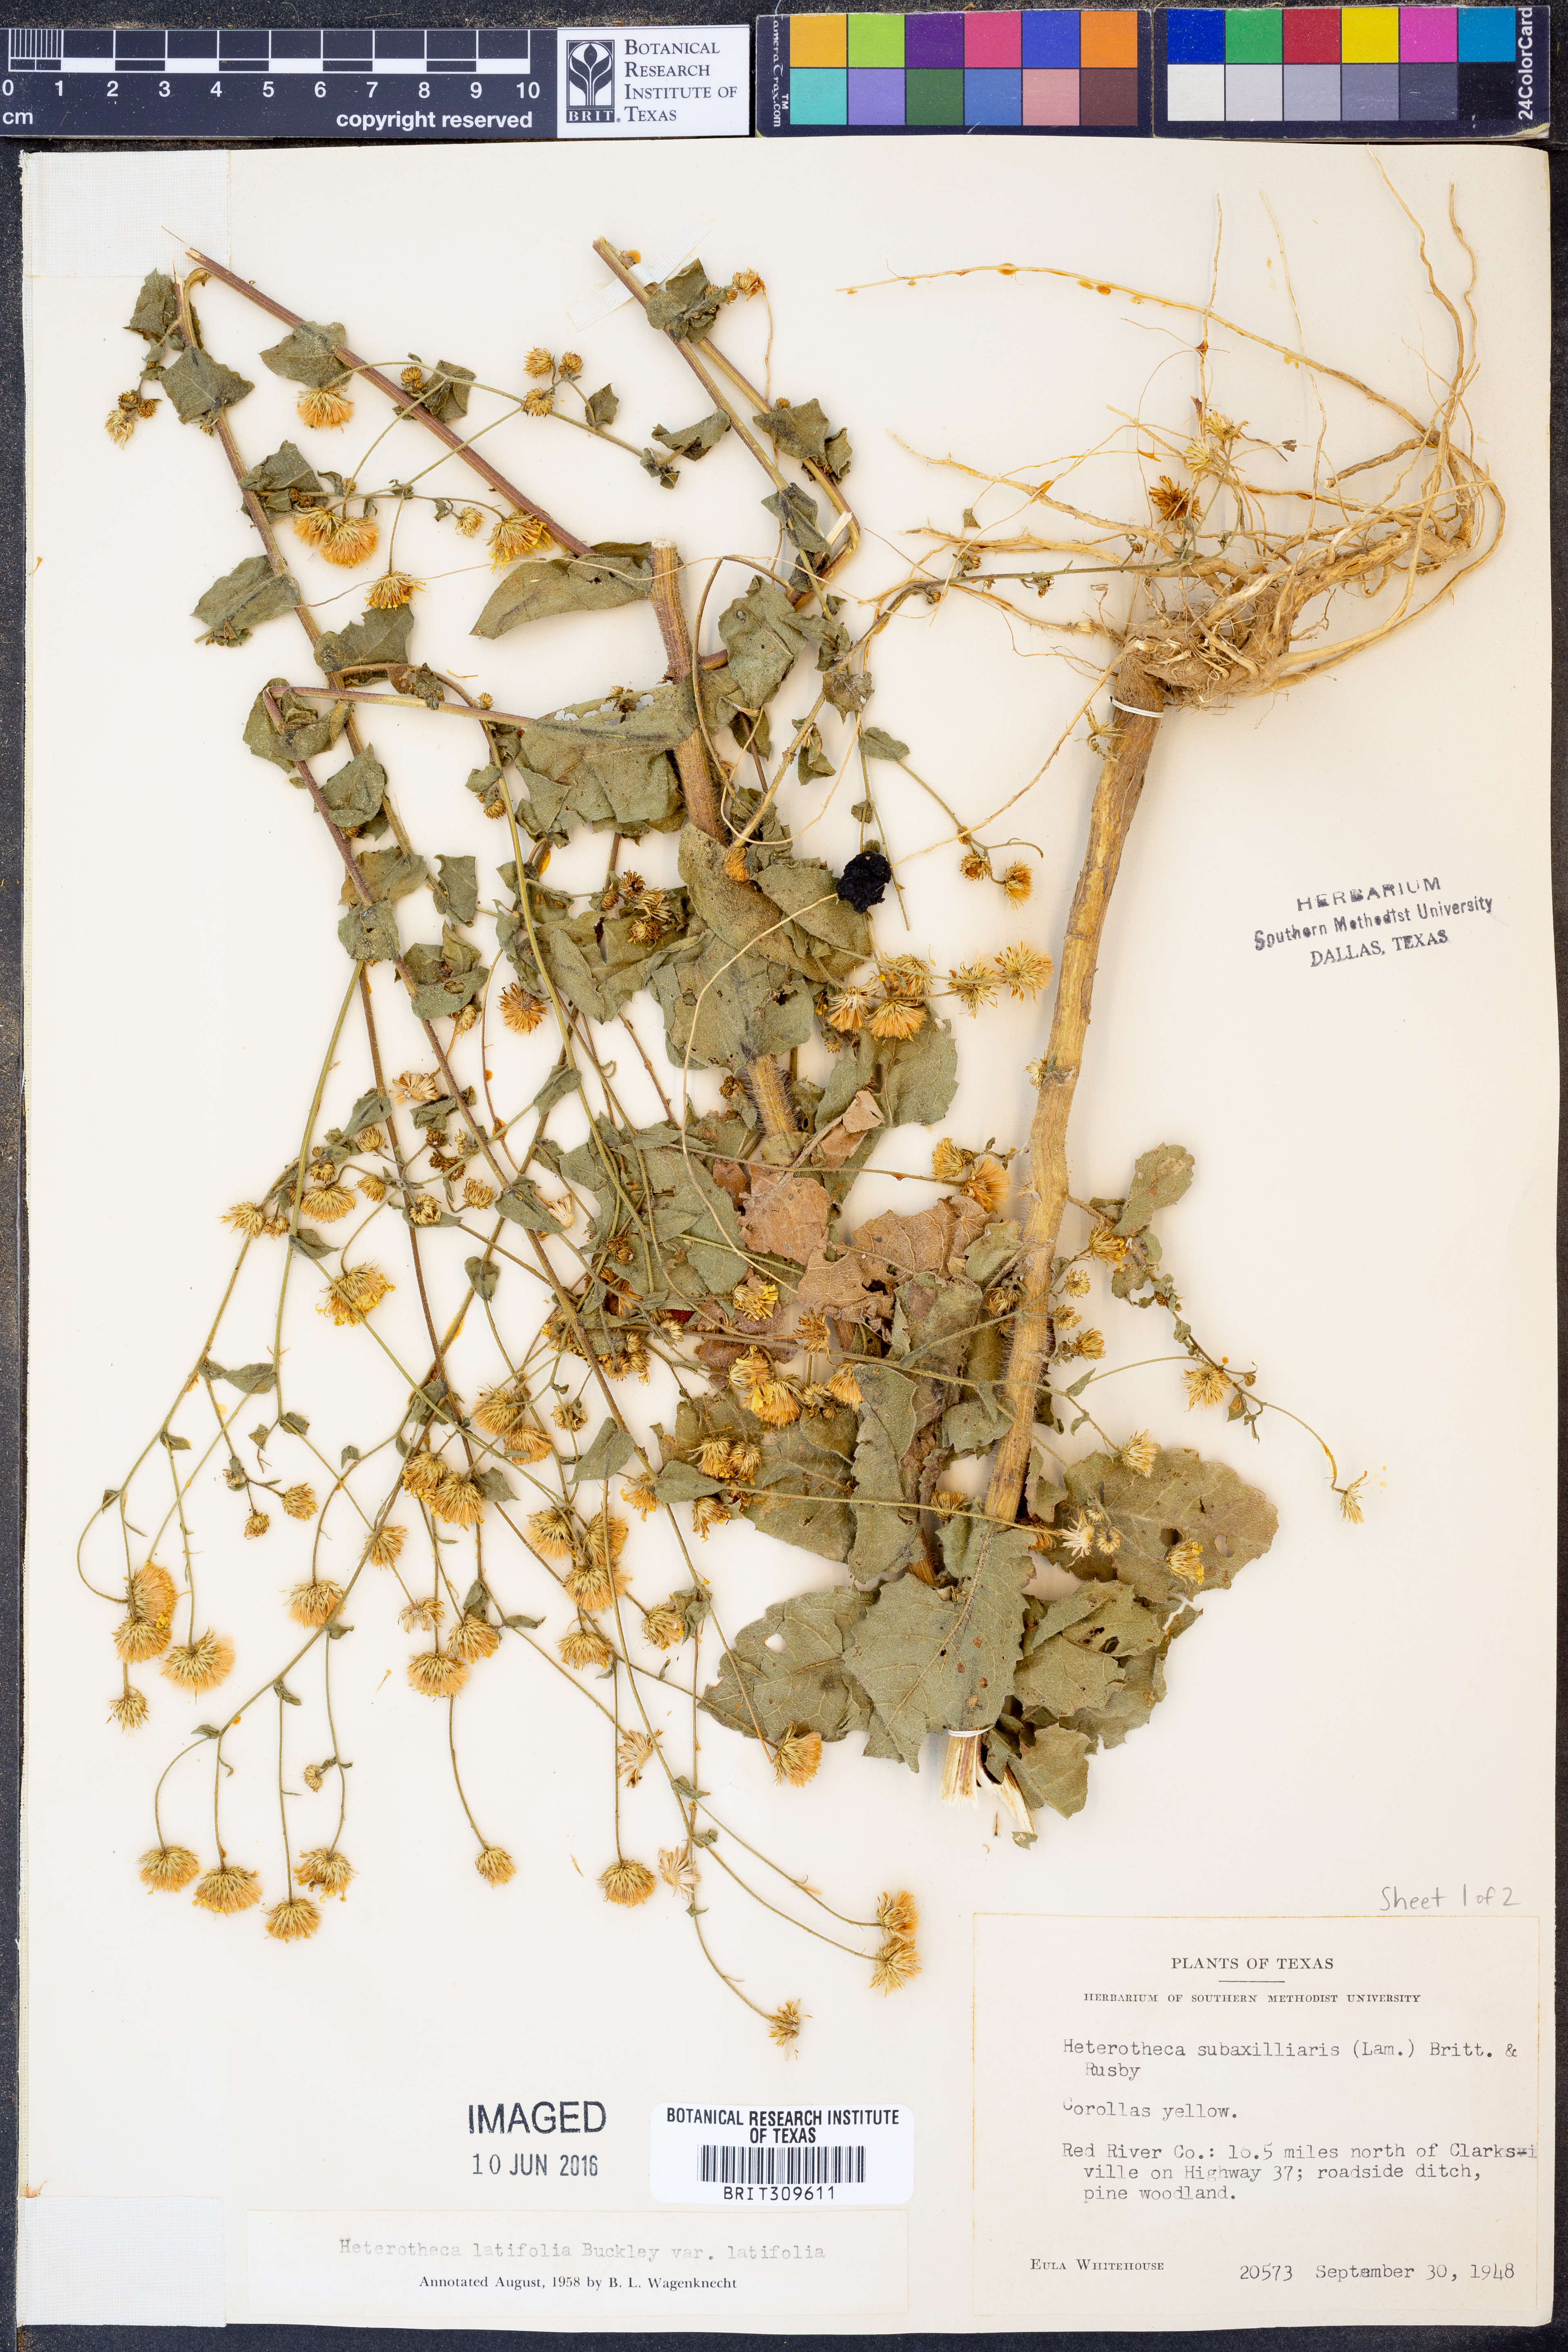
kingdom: Plantae
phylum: Tracheophyta
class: Magnoliopsida
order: Asterales
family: Asteraceae
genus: Heterotheca
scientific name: Heterotheca subaxillaris
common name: Camphorweed
